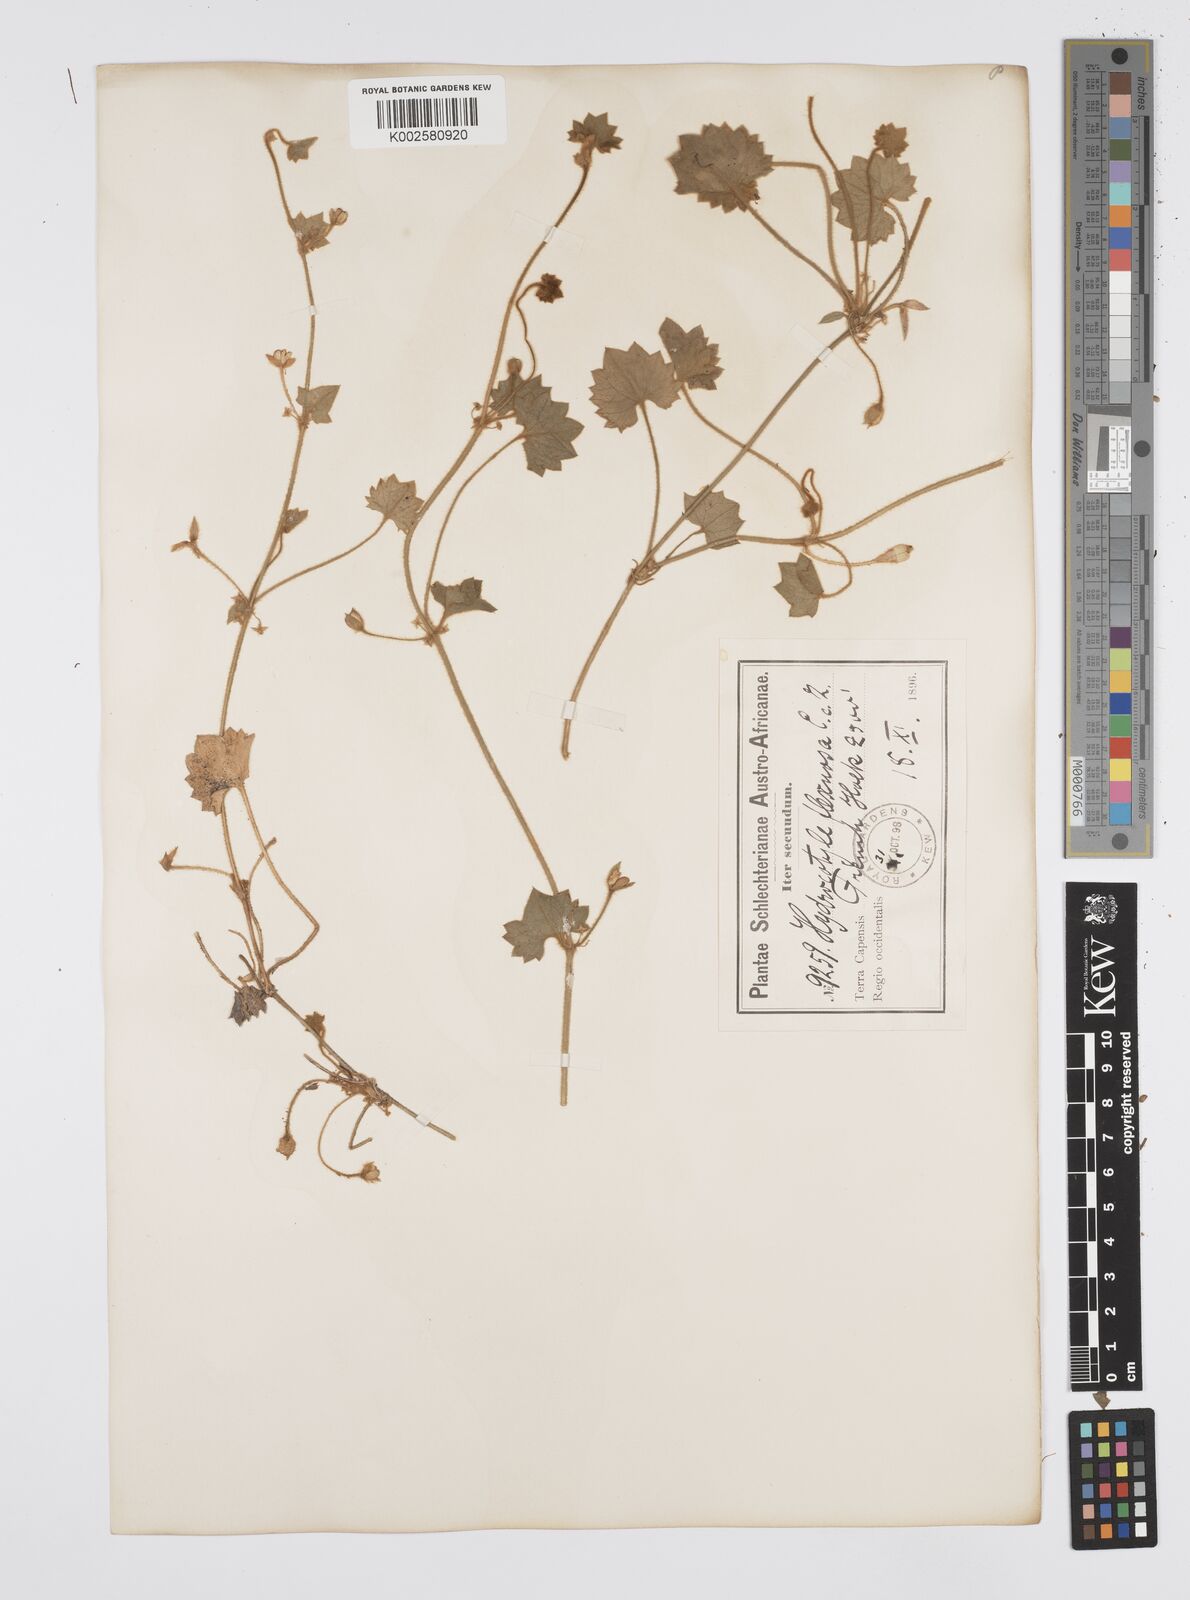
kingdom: Plantae
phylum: Tracheophyta
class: Magnoliopsida
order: Apiales
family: Apiaceae
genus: Centella
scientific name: Centella flexuosa
